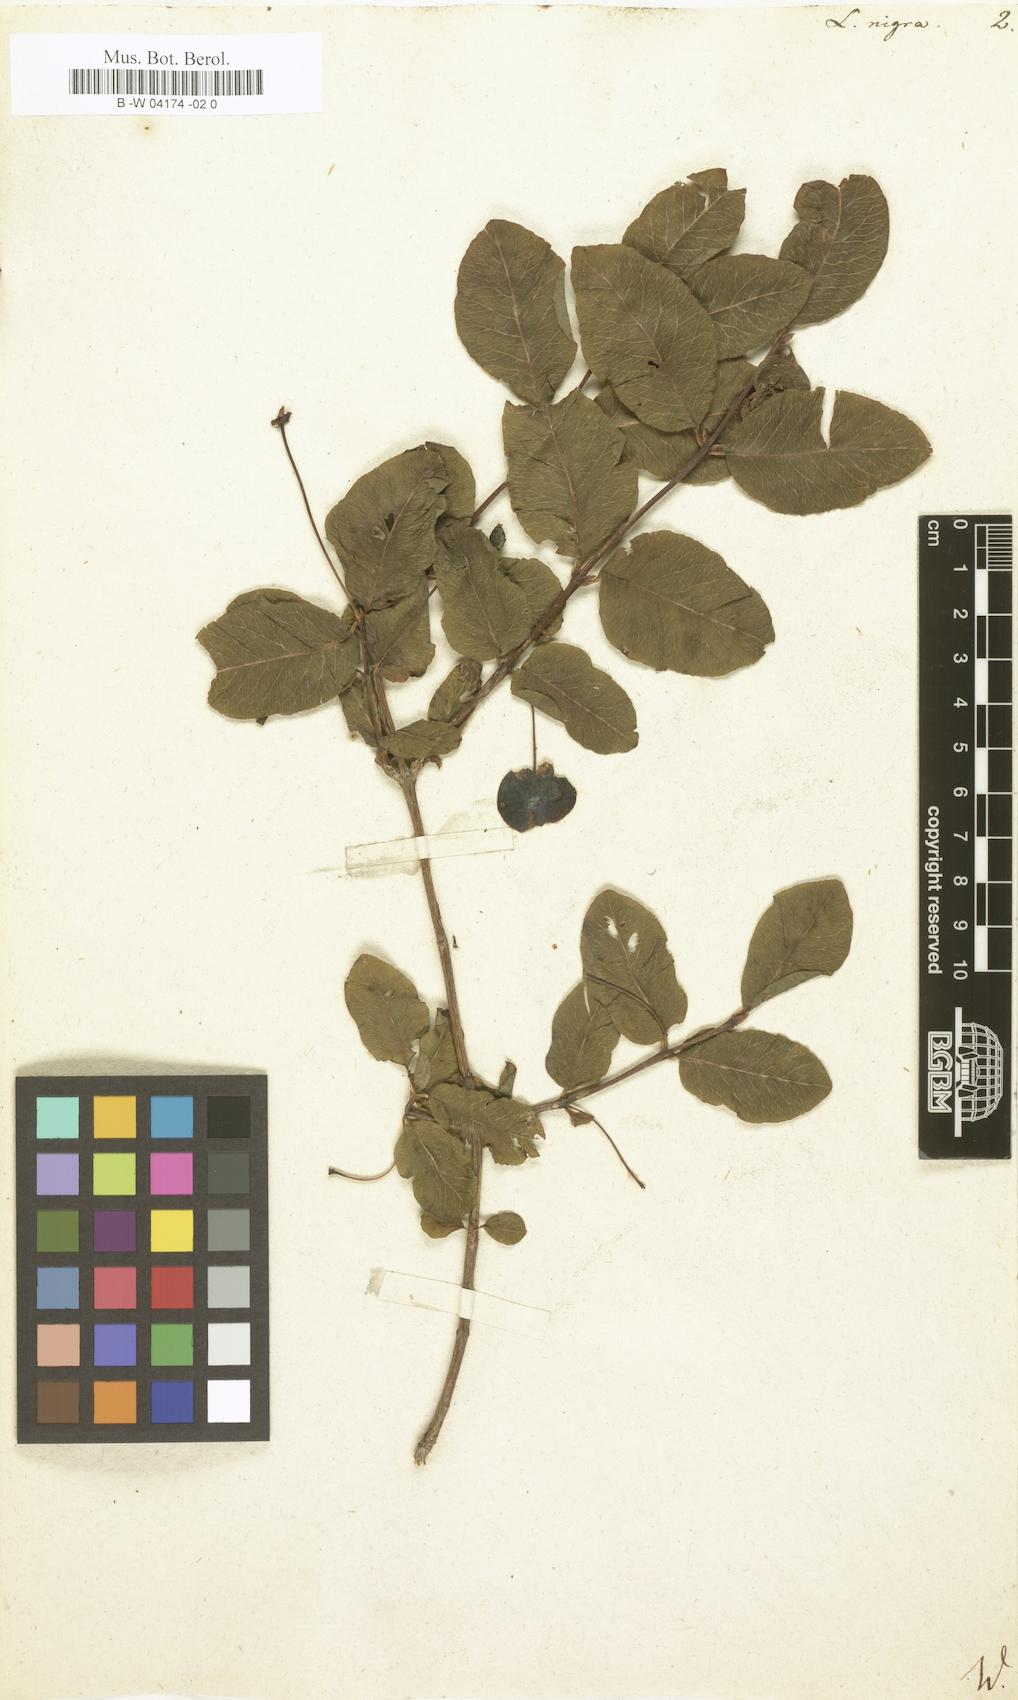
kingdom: Plantae
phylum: Tracheophyta
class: Magnoliopsida
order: Dipsacales
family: Caprifoliaceae
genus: Lonicera
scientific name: Lonicera nigra
